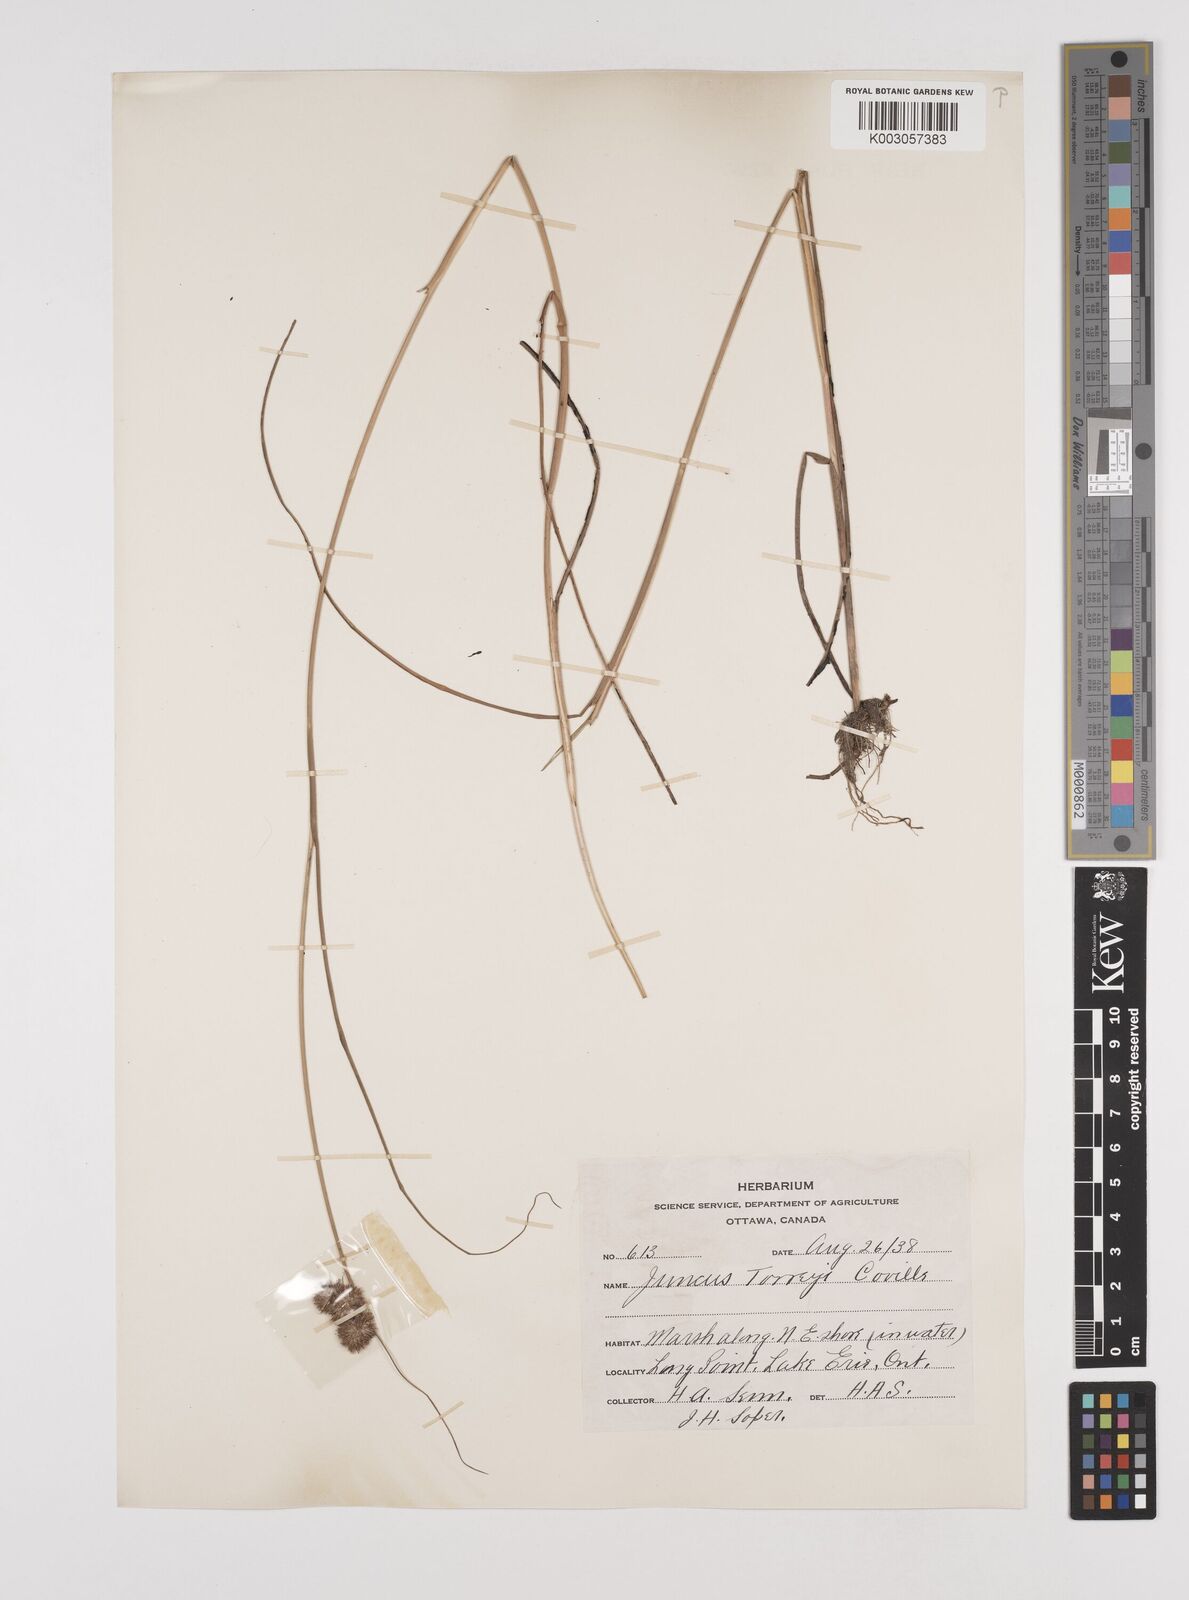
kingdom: Plantae
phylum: Tracheophyta
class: Liliopsida
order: Poales
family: Juncaceae
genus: Juncus
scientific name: Juncus torreyi
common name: Torrey's rush
